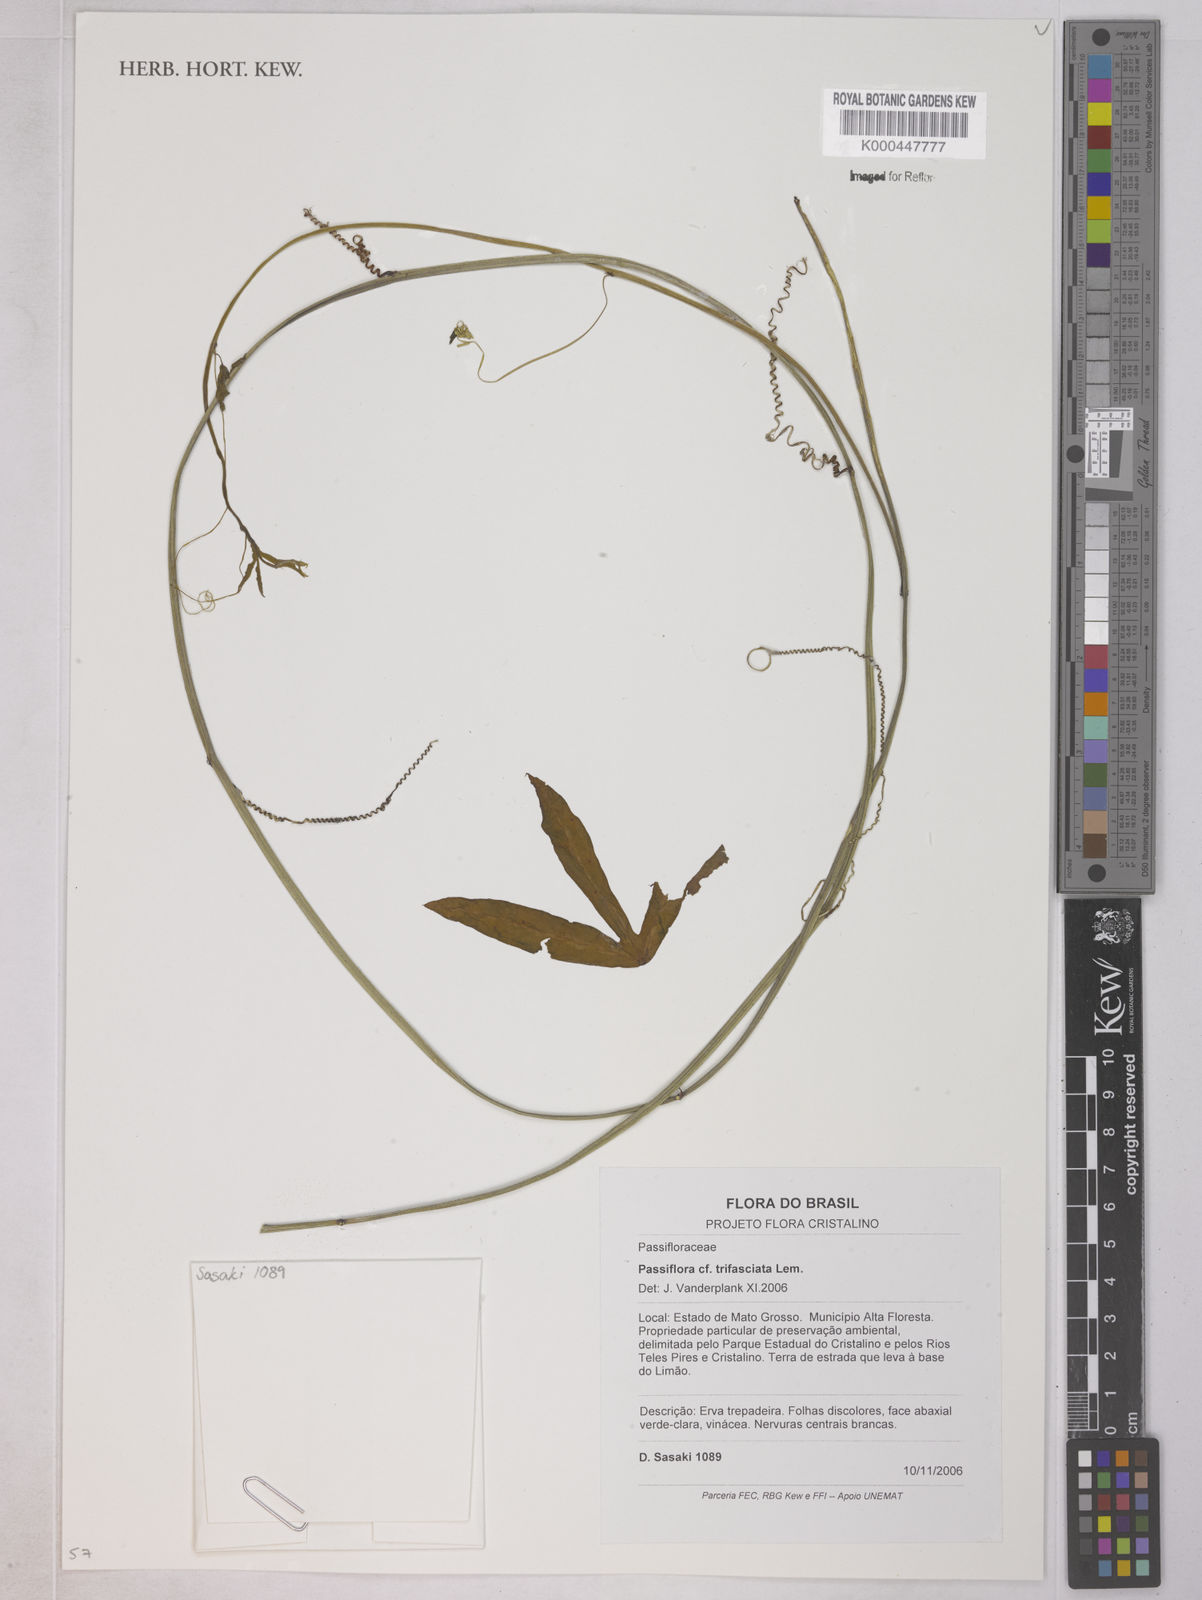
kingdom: Plantae
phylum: Tracheophyta
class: Magnoliopsida
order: Malpighiales
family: Passifloraceae
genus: Passiflora
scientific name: Passiflora trifasciata
